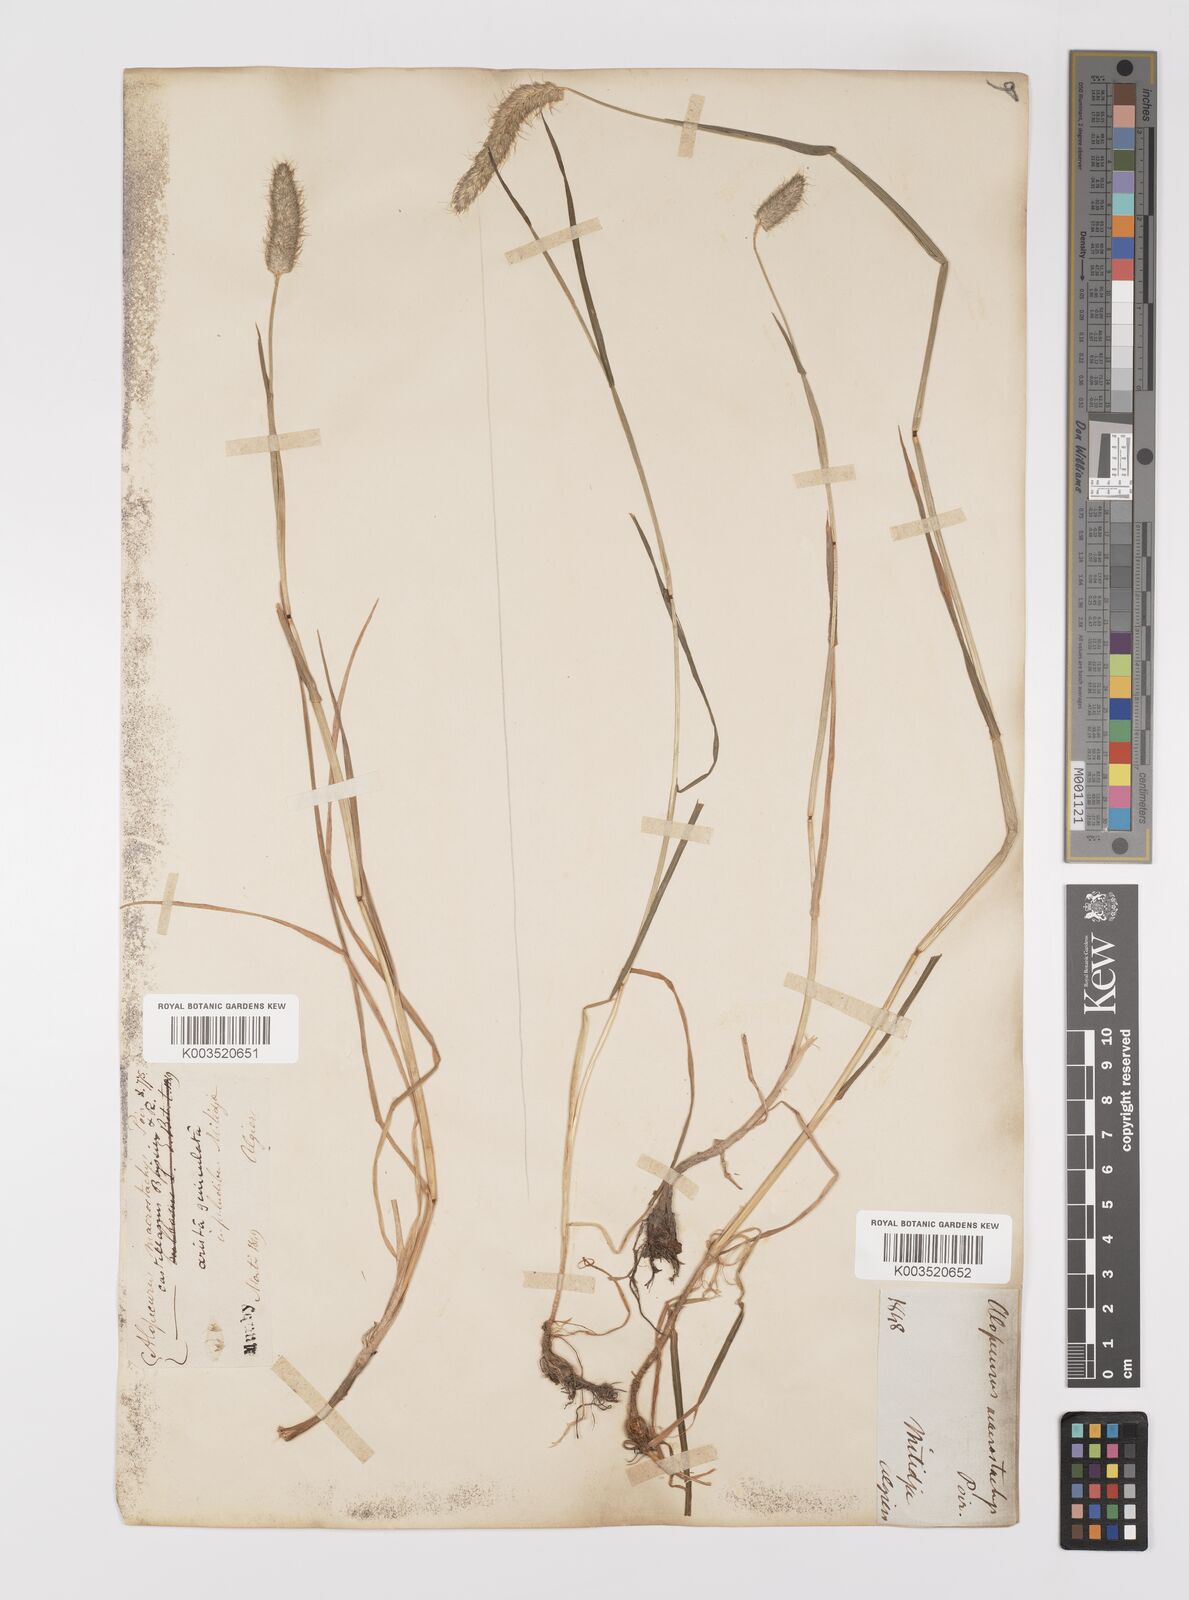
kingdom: Plantae
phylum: Tracheophyta
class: Liliopsida
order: Poales
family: Poaceae
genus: Alopecurus
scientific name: Alopecurus bulbosus
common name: Bulbous foxtail
